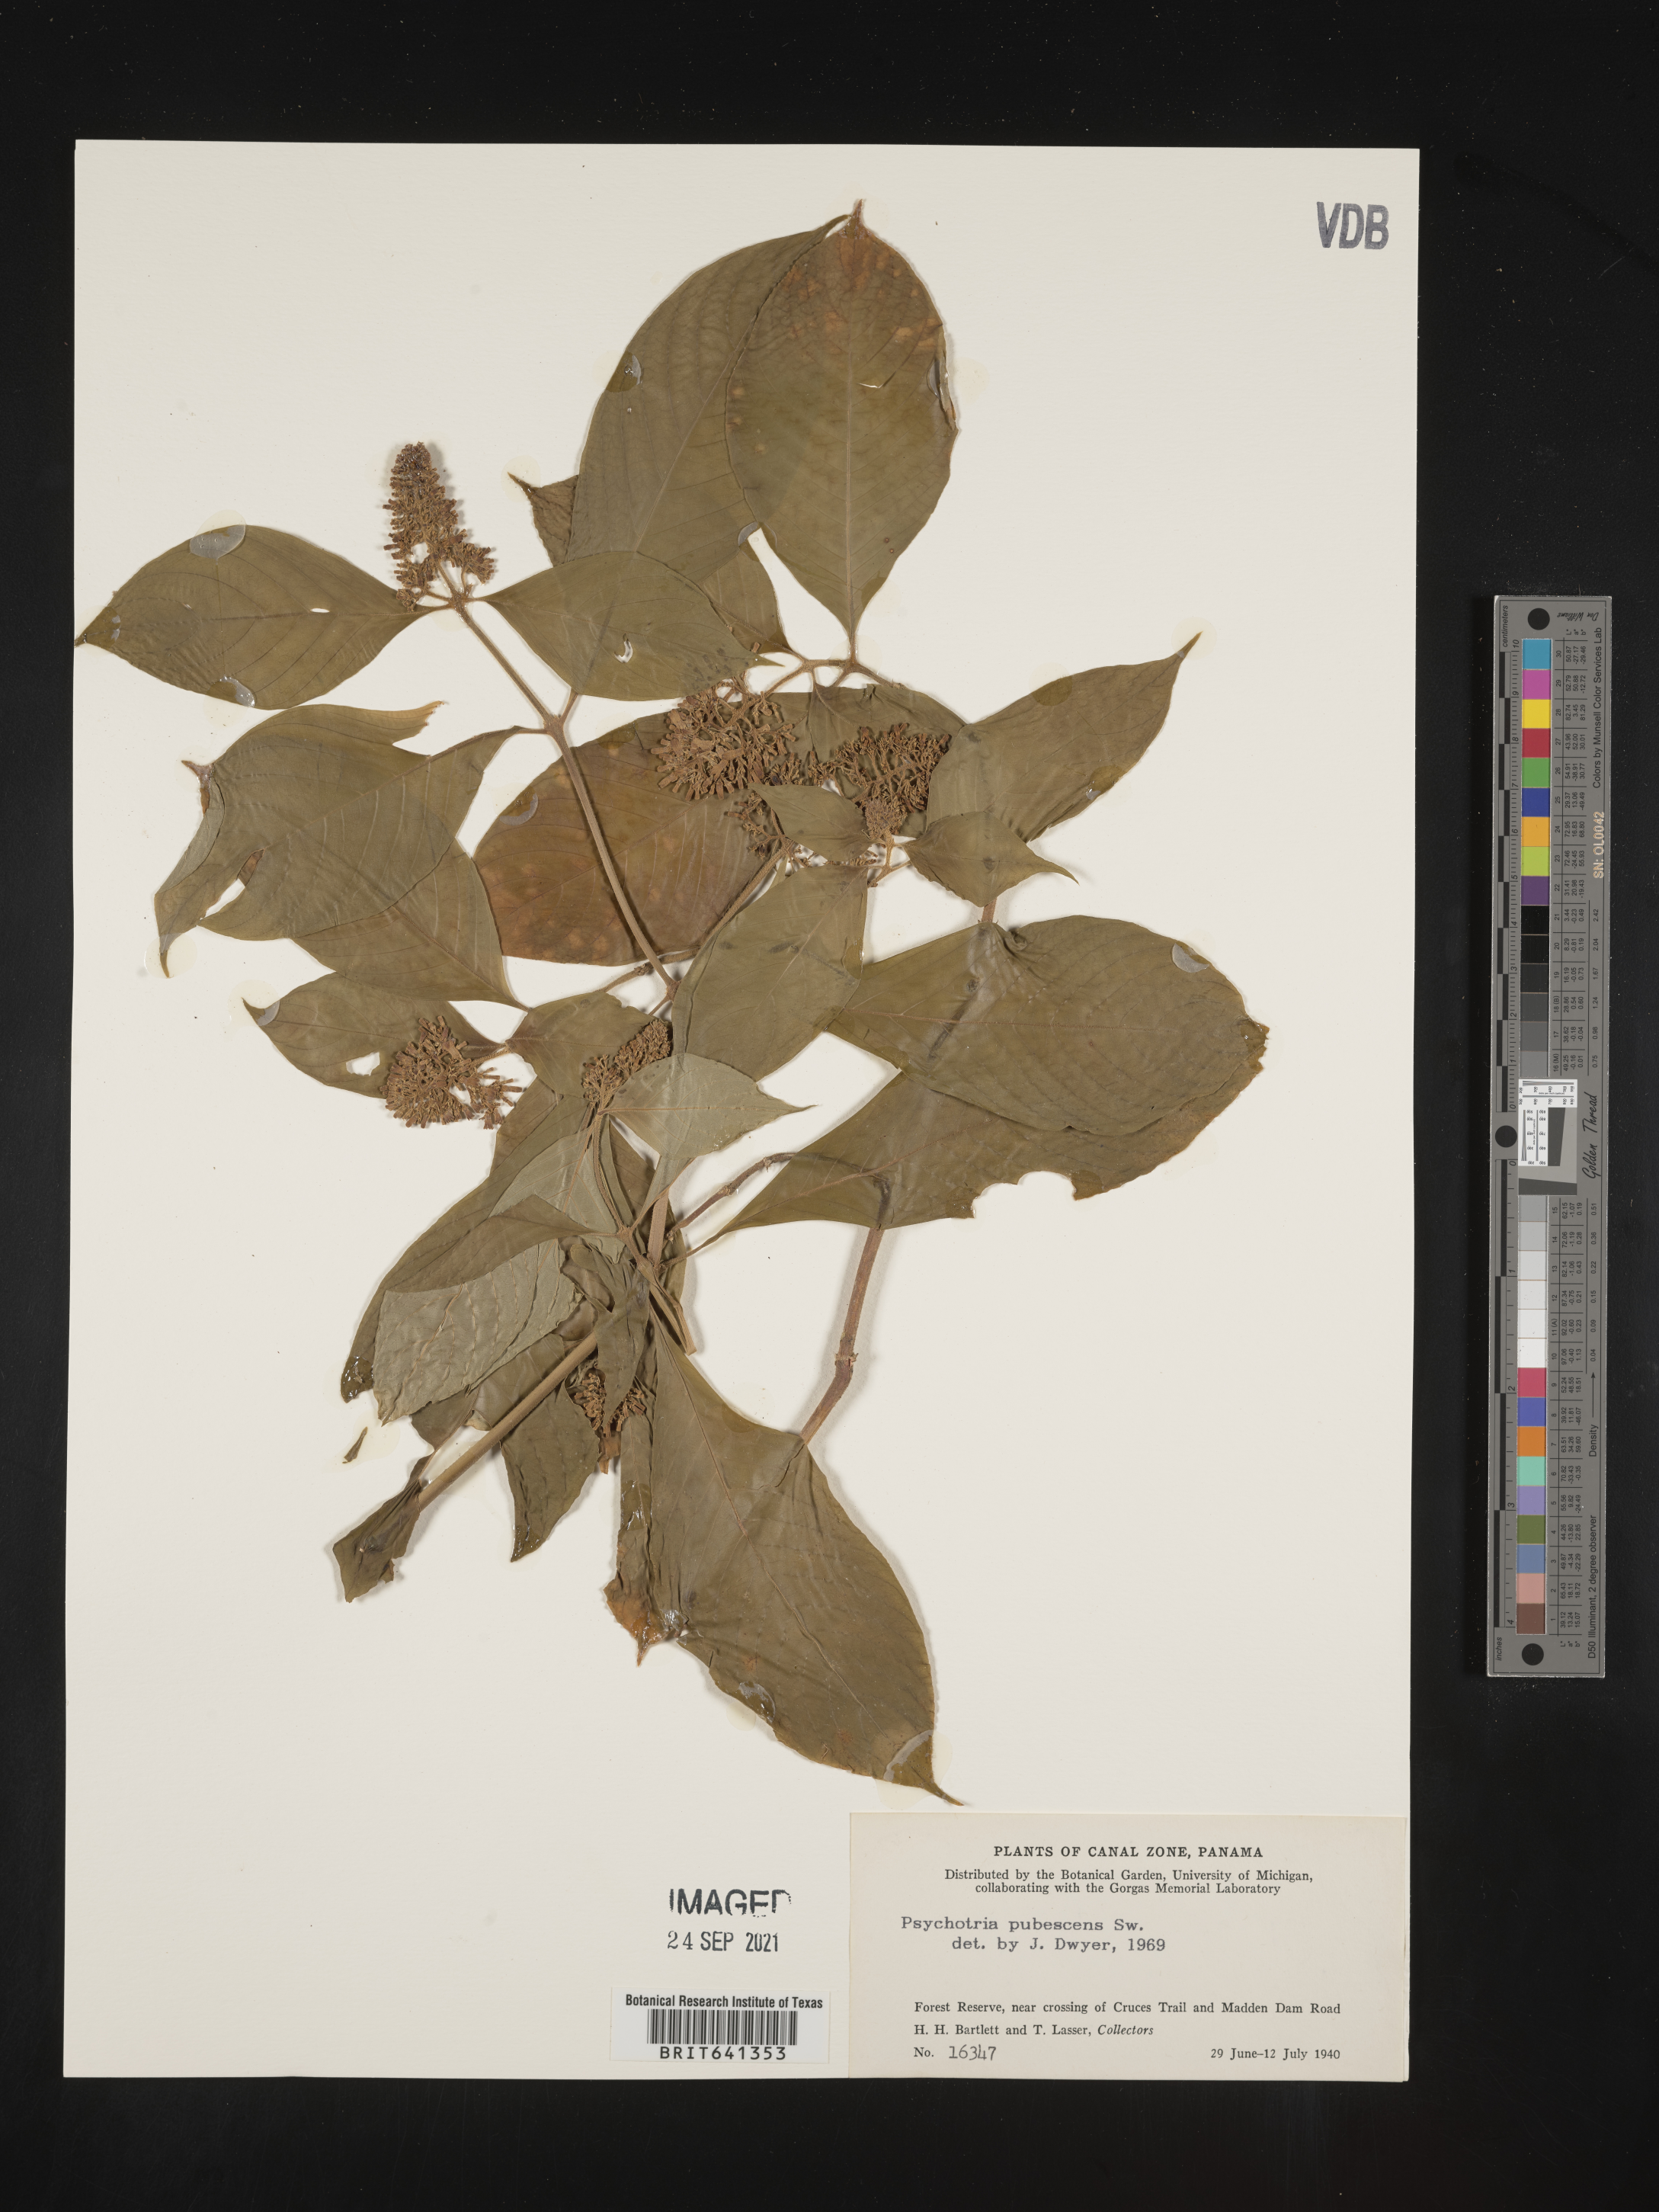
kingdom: Plantae
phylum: Tracheophyta
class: Magnoliopsida
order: Gentianales
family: Rubiaceae
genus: Psychotria
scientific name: Psychotria
